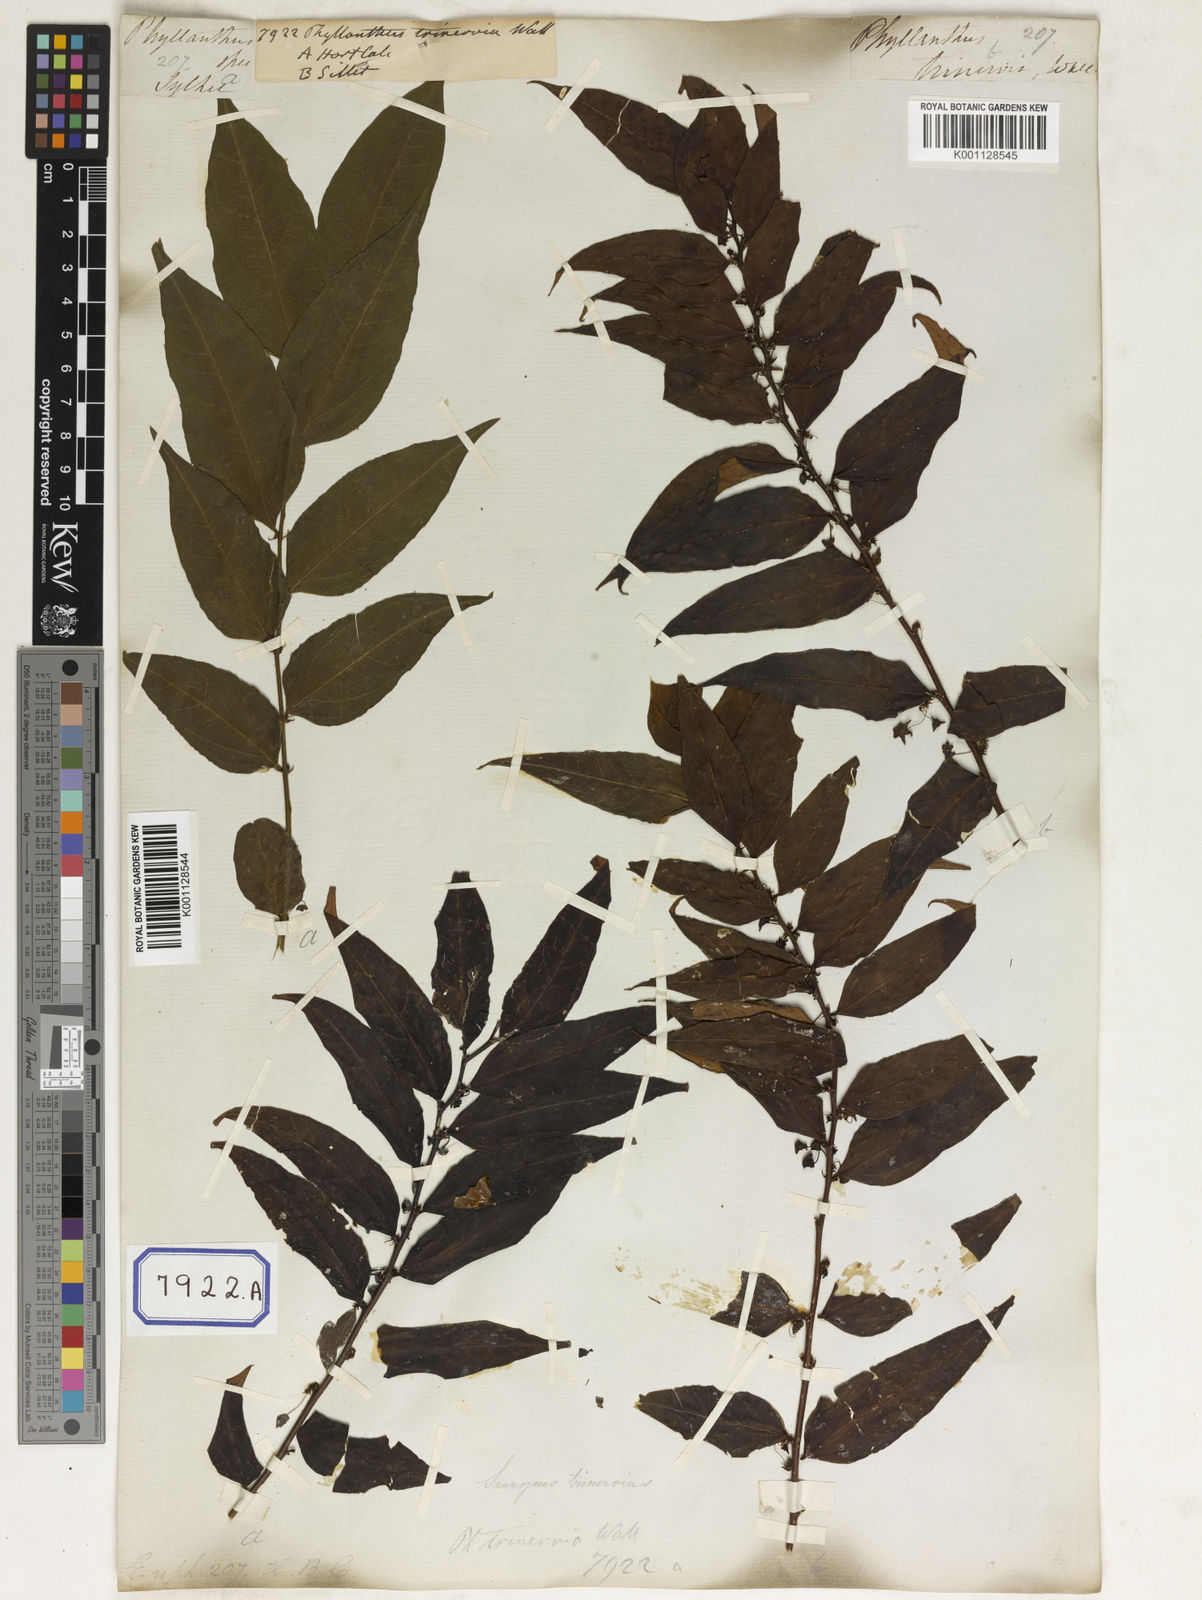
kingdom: Plantae
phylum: Tracheophyta
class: Magnoliopsida
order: Malpighiales
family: Phyllanthaceae
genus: Phyllanthus
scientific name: Phyllanthus
